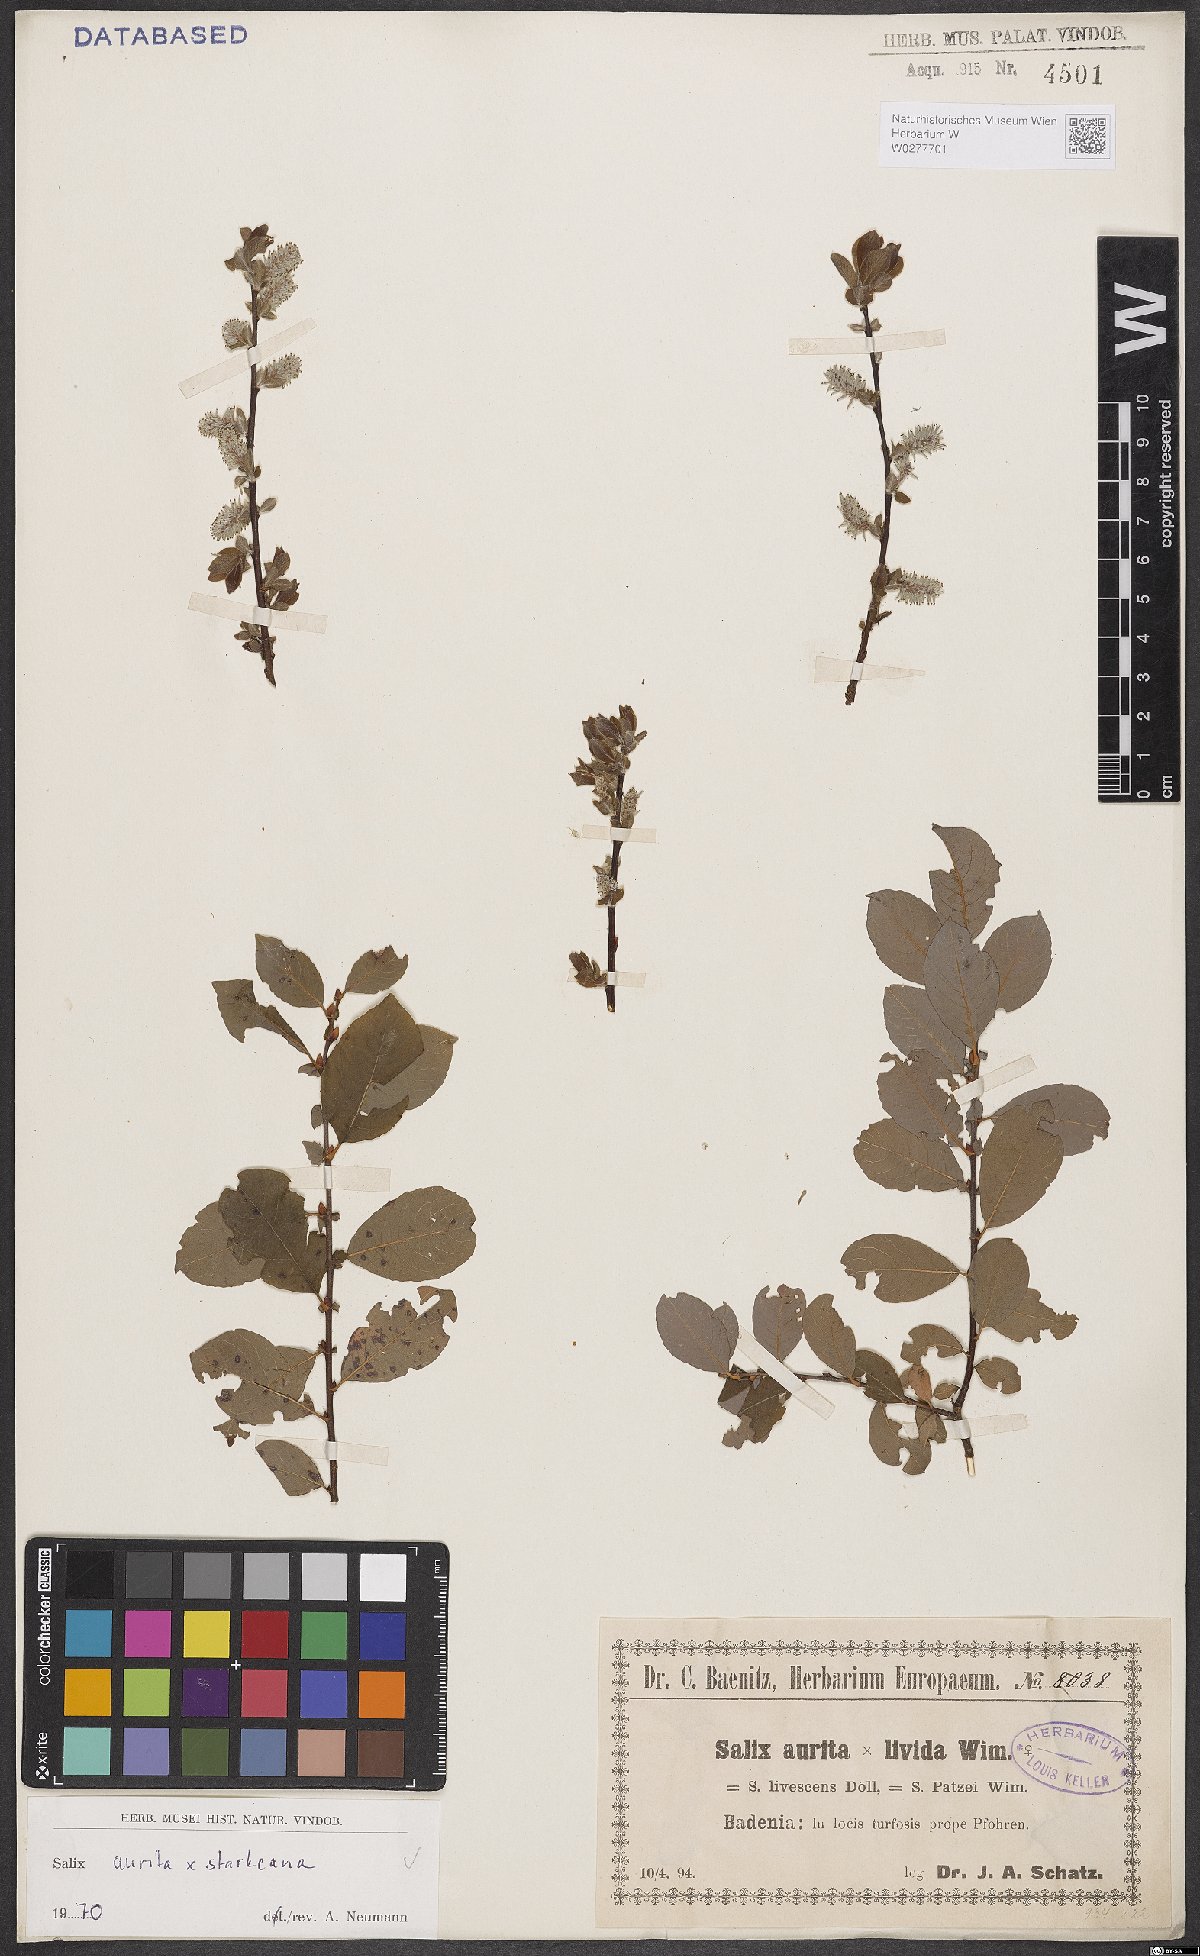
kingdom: Plantae
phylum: Tracheophyta
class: Magnoliopsida
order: Malpighiales
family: Salicaceae
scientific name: Salicaceae
